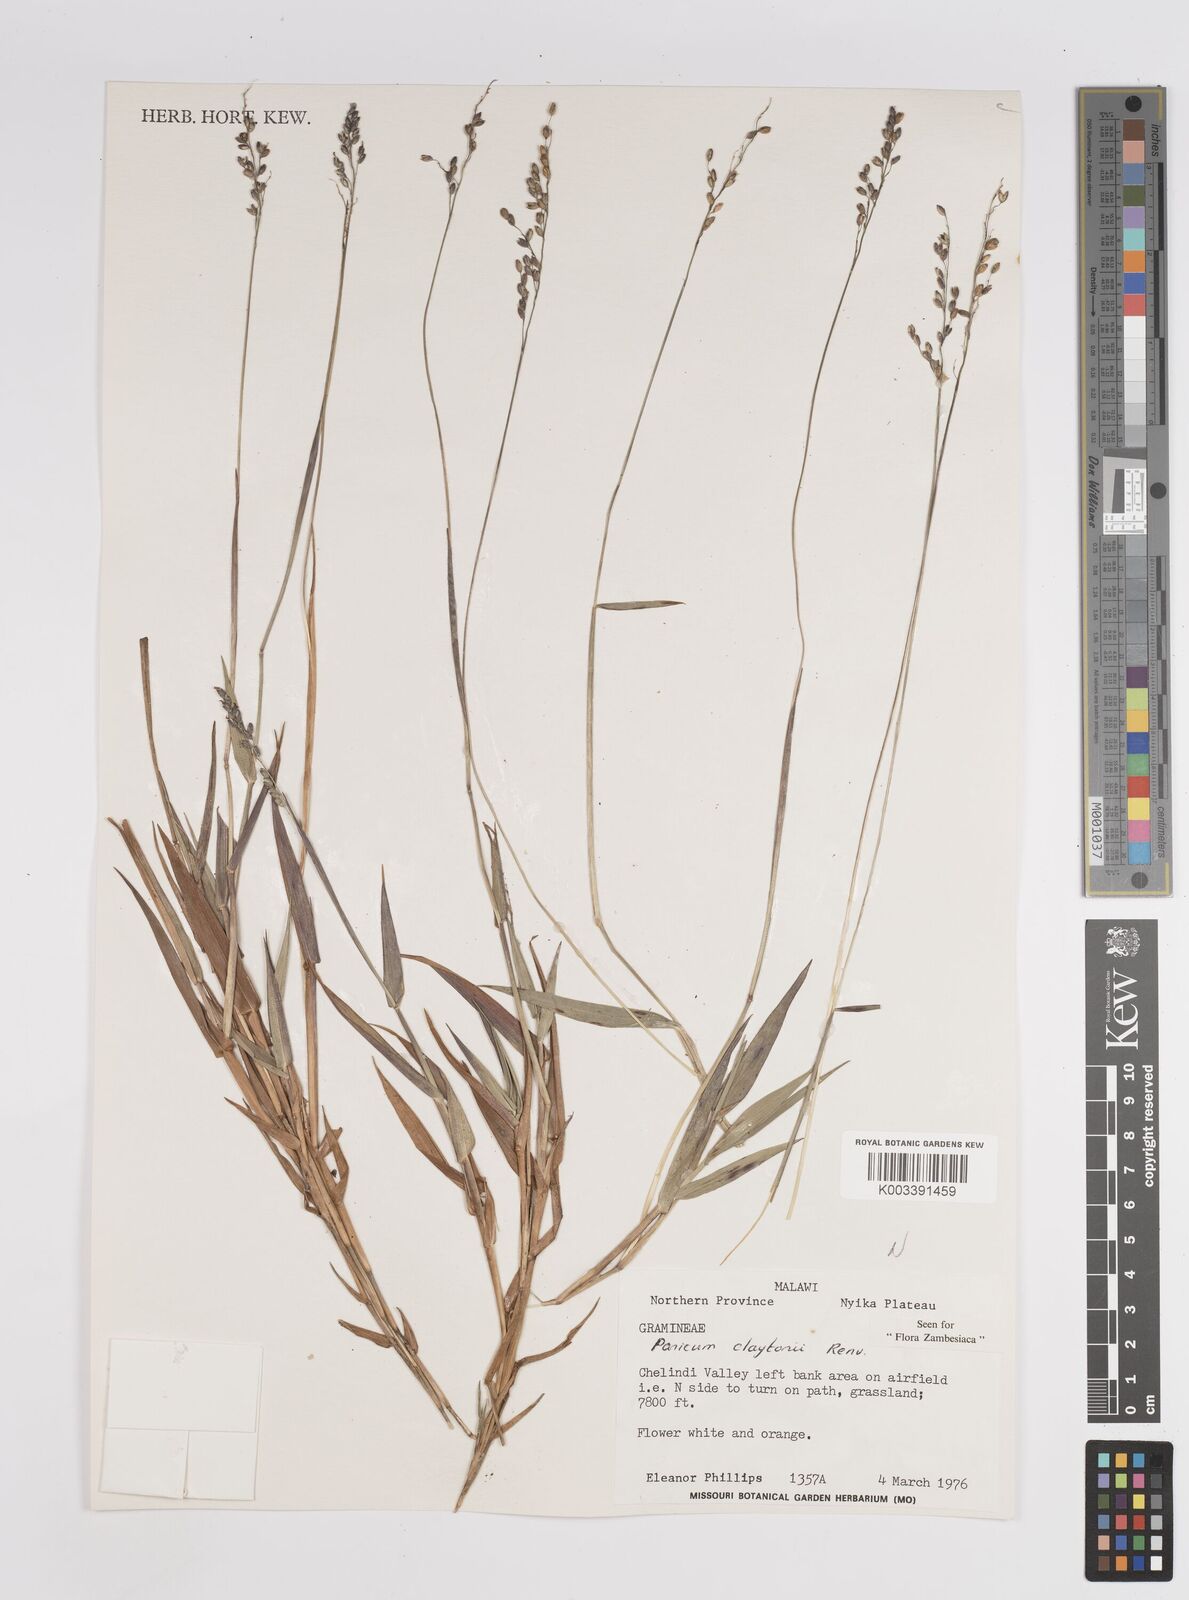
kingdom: Plantae
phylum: Tracheophyta
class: Liliopsida
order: Poales
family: Poaceae
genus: Adenochloa
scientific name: Adenochloa claytonii
